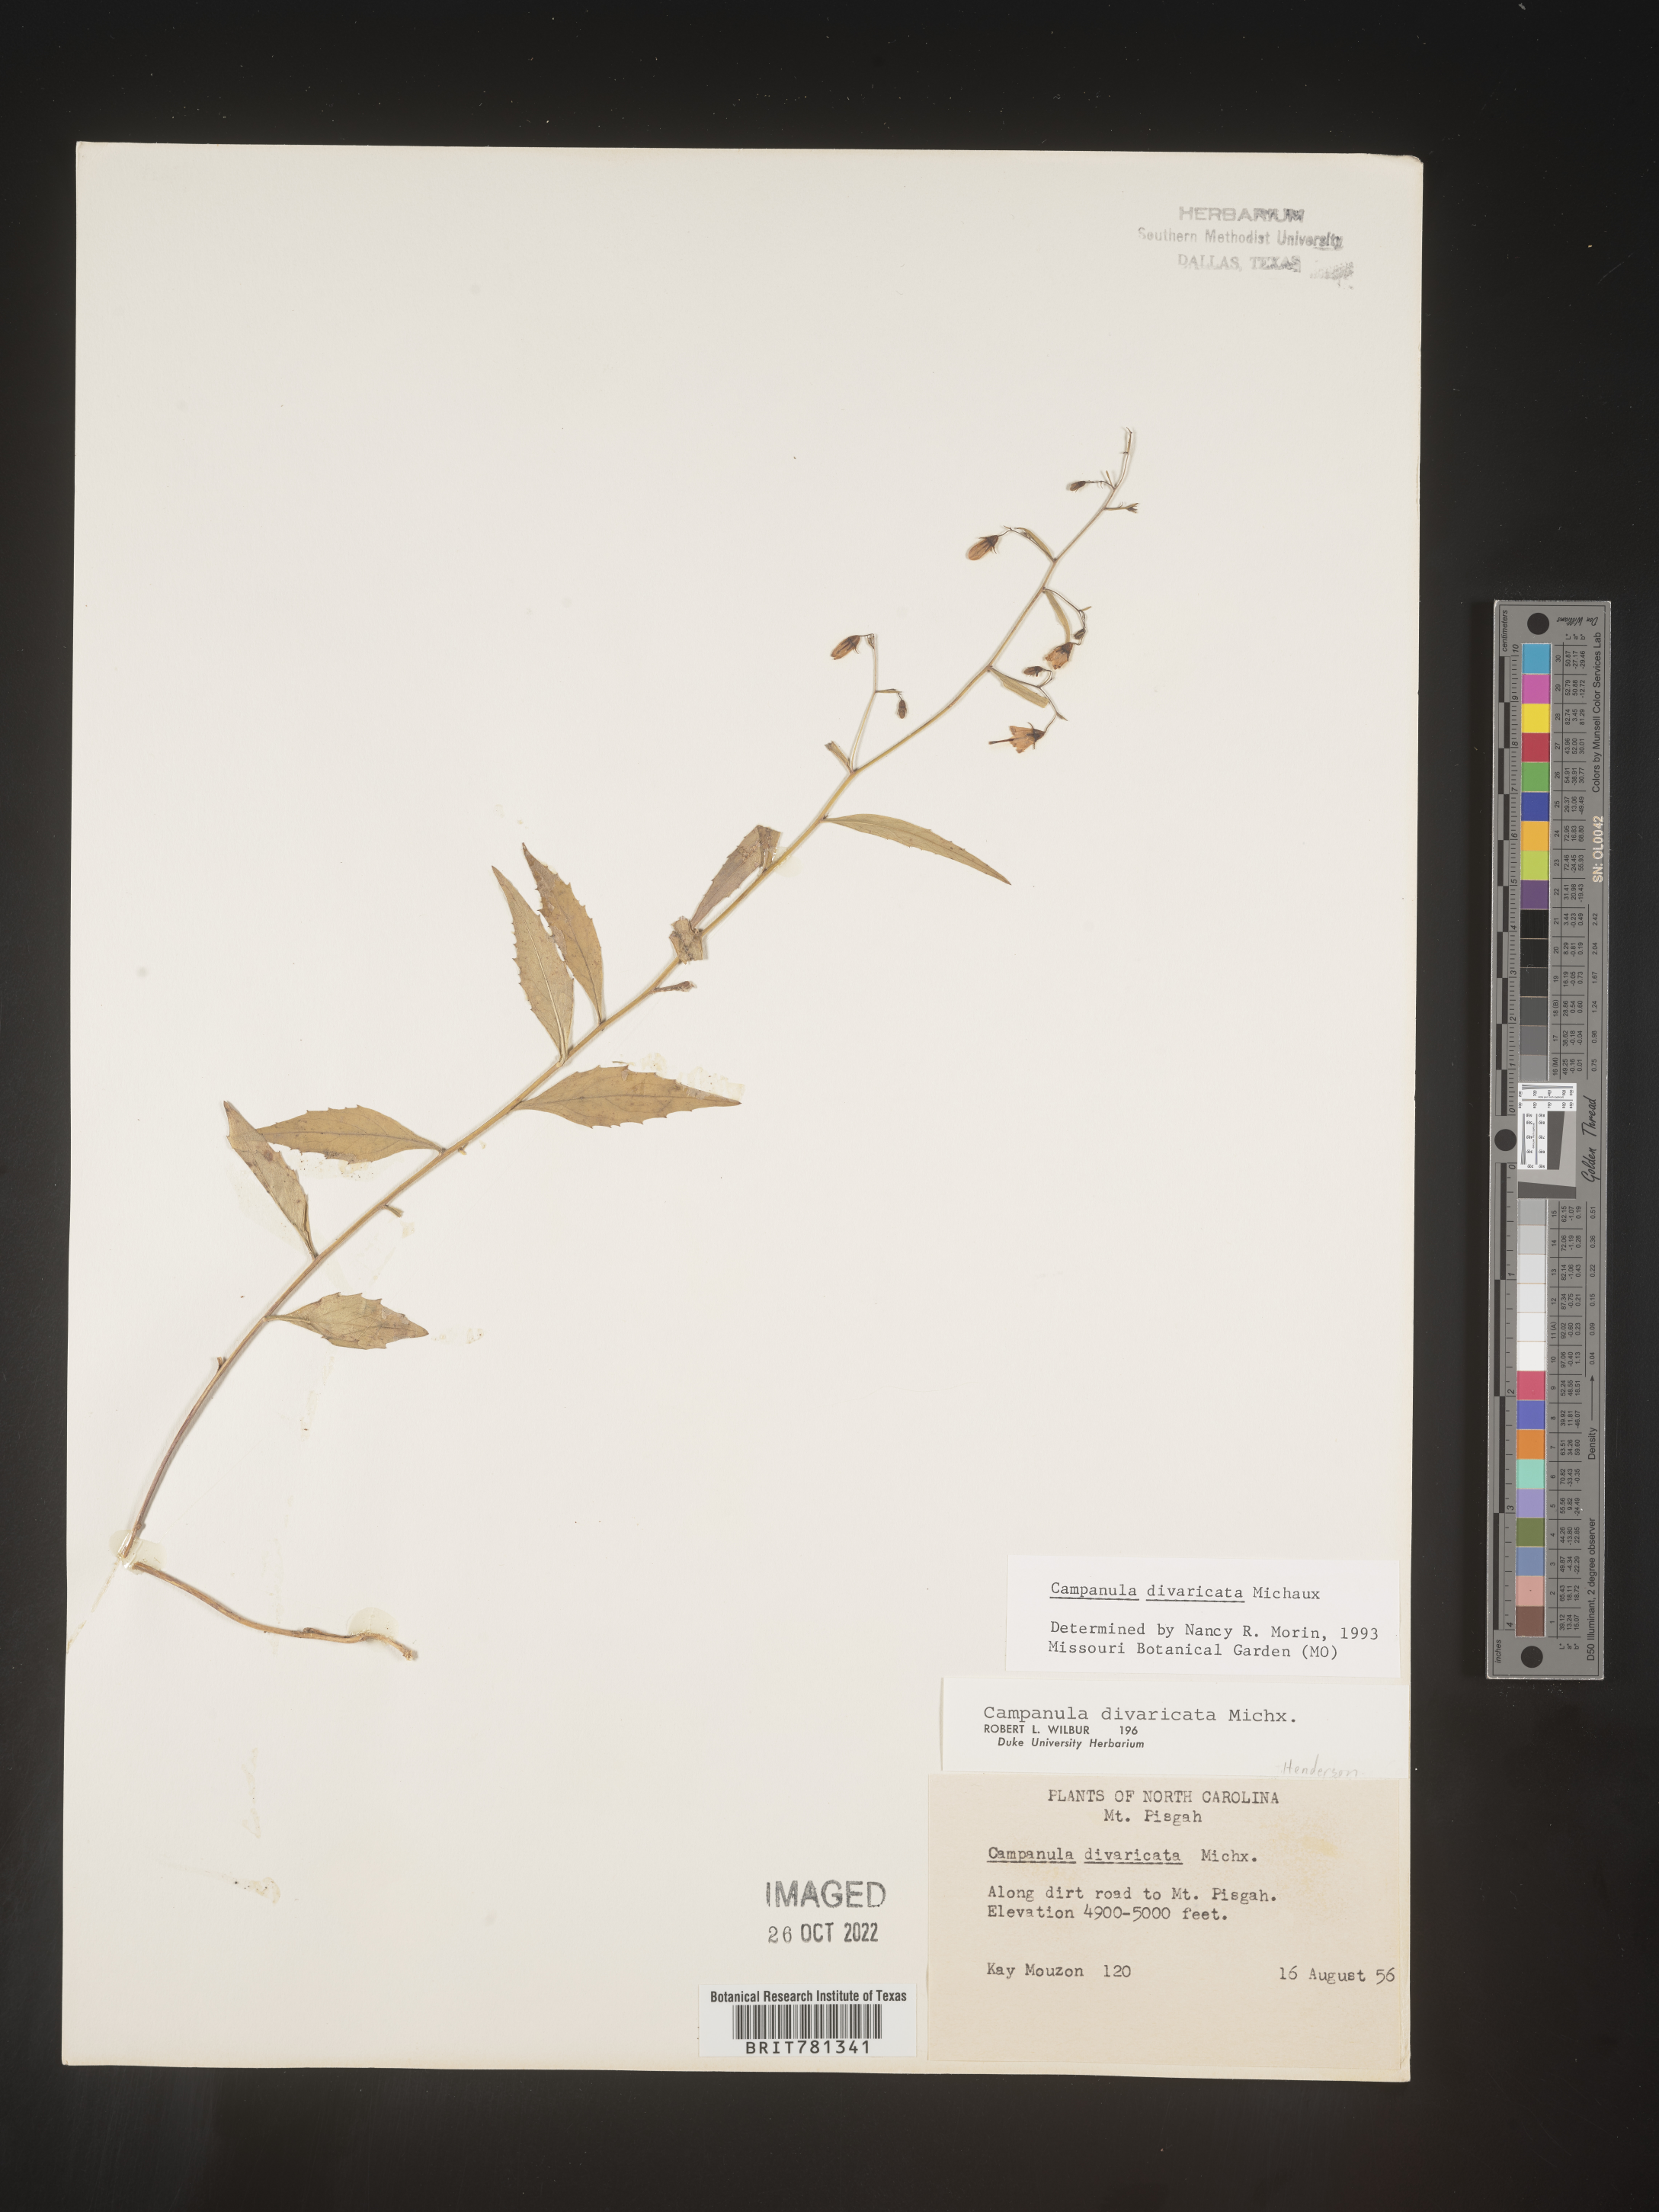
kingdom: Plantae
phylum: Tracheophyta
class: Magnoliopsida
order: Asterales
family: Campanulaceae
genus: Campanula
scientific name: Campanula divaricata
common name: Appalachian bellflower
